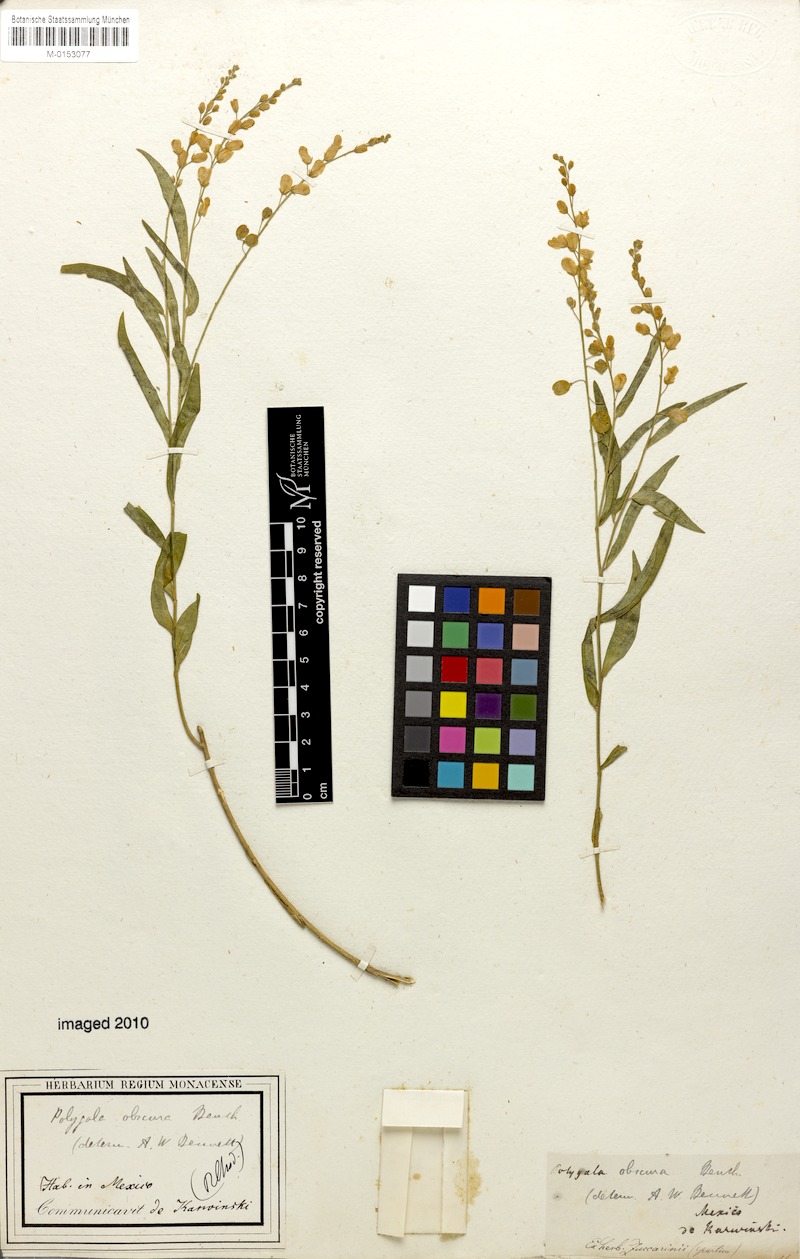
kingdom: Plantae
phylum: Tracheophyta
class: Magnoliopsida
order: Fabales
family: Polygalaceae
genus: Hebecarpa
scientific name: Hebecarpa obscura
